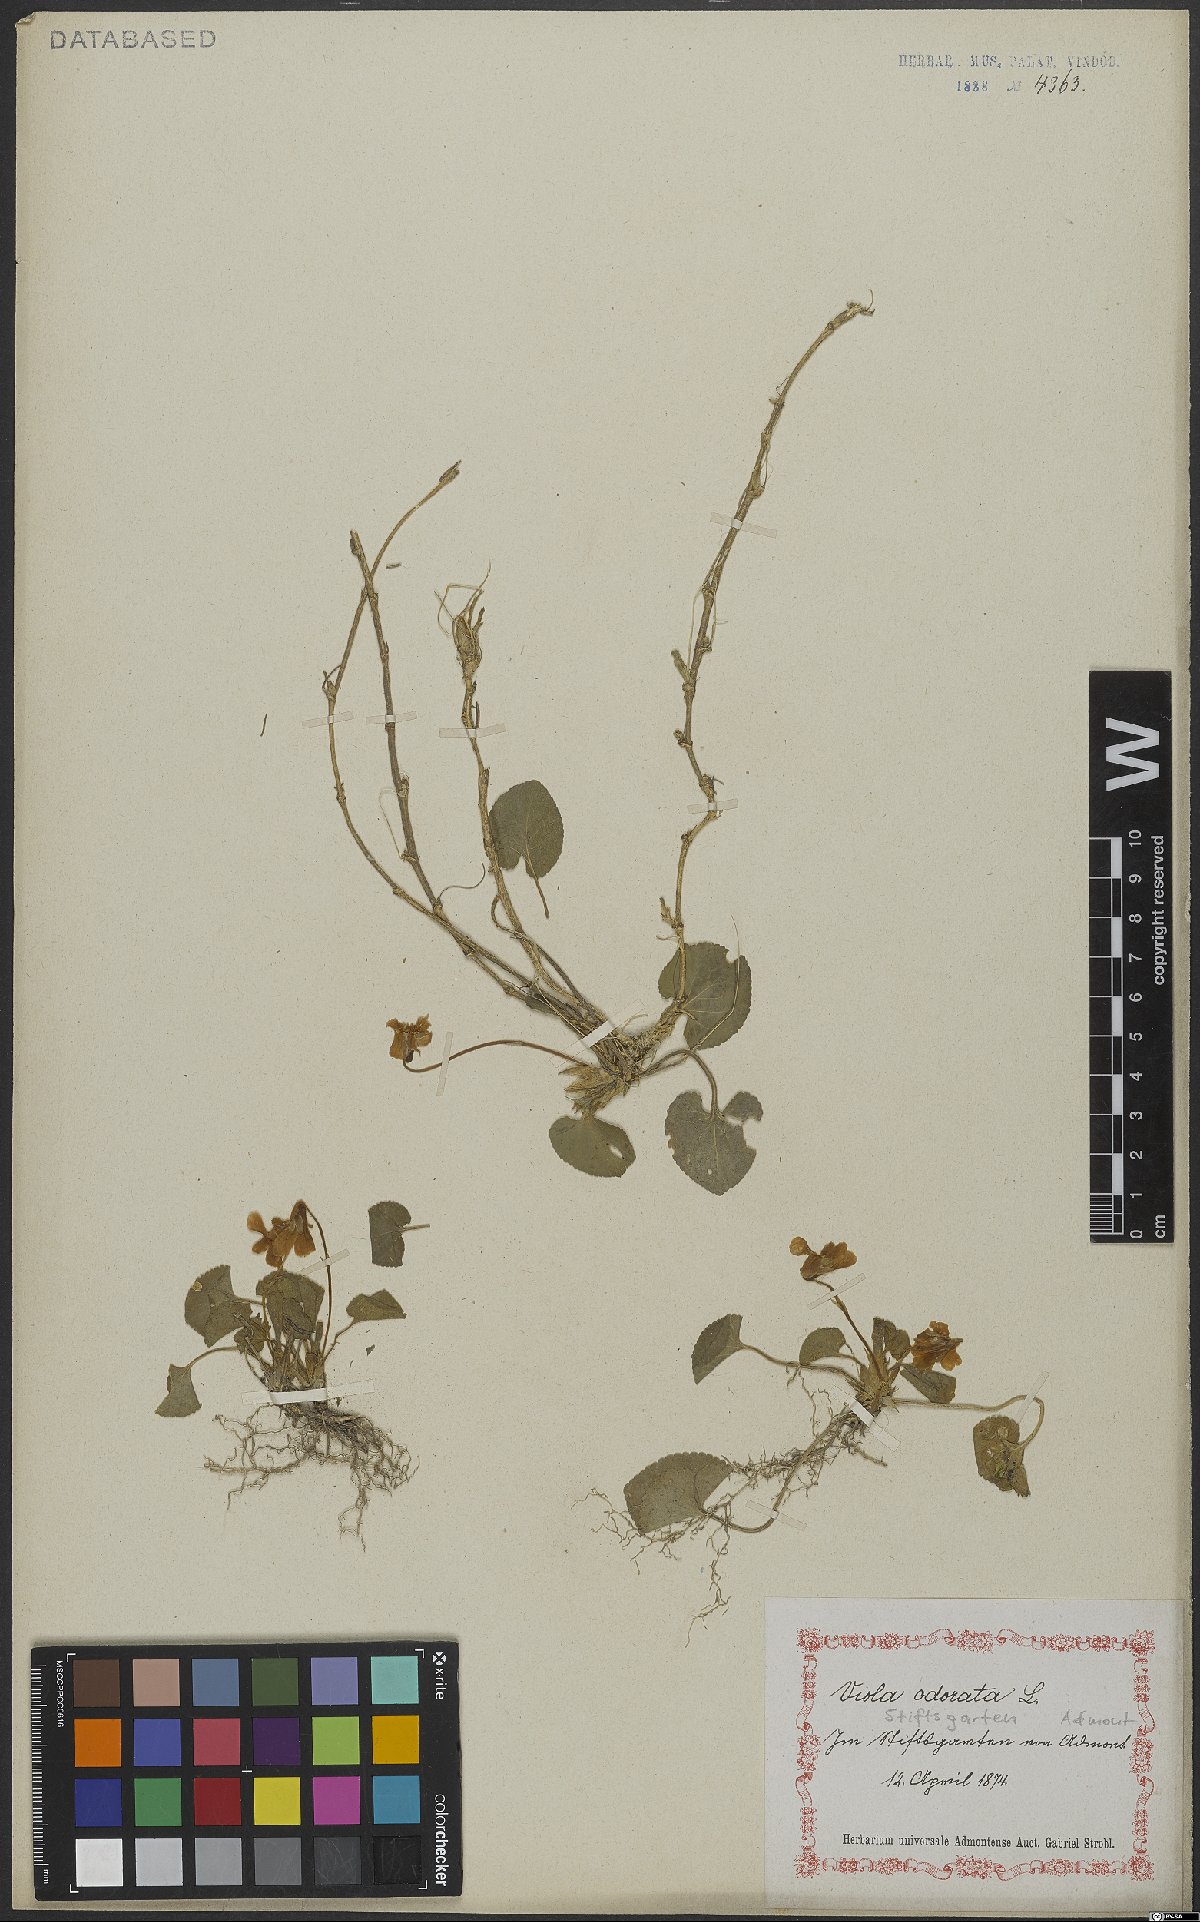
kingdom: Plantae
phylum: Tracheophyta
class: Magnoliopsida
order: Malpighiales
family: Violaceae
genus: Viola
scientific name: Viola odorata
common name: Sweet violet
